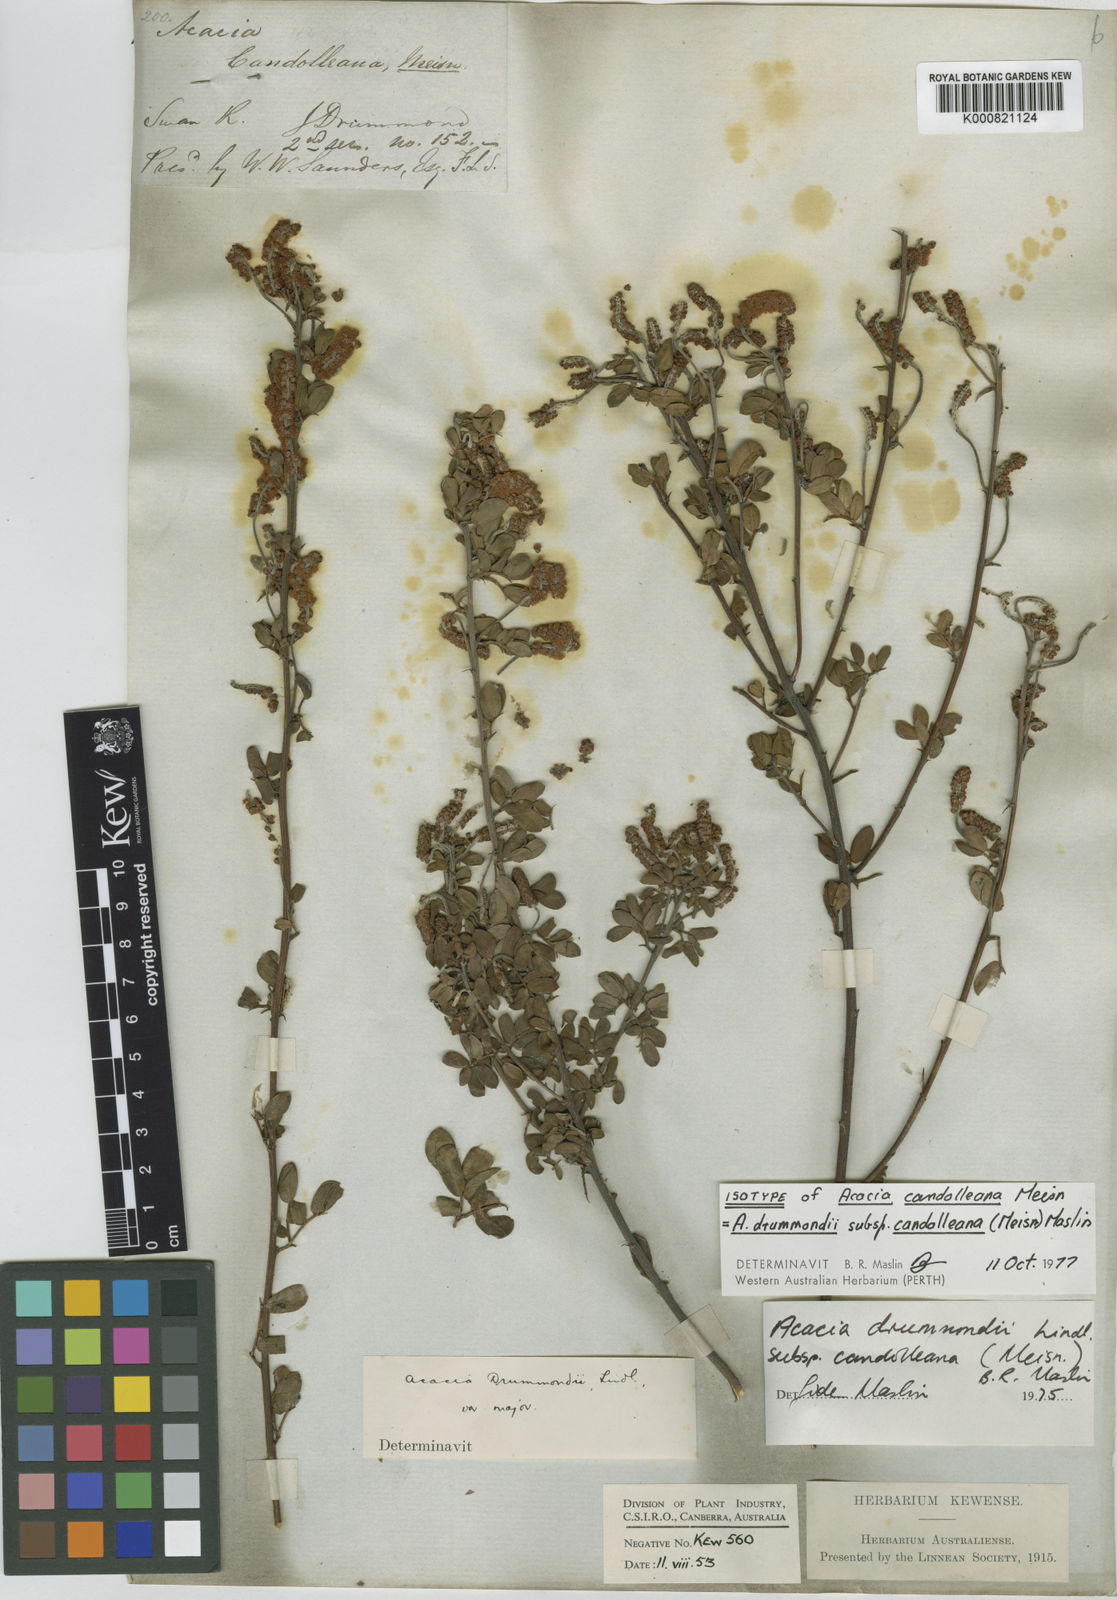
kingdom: Plantae
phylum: Tracheophyta
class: Magnoliopsida
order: Fabales
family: Fabaceae
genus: Acacia
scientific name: Acacia drummondii
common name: Drummond's wattle
